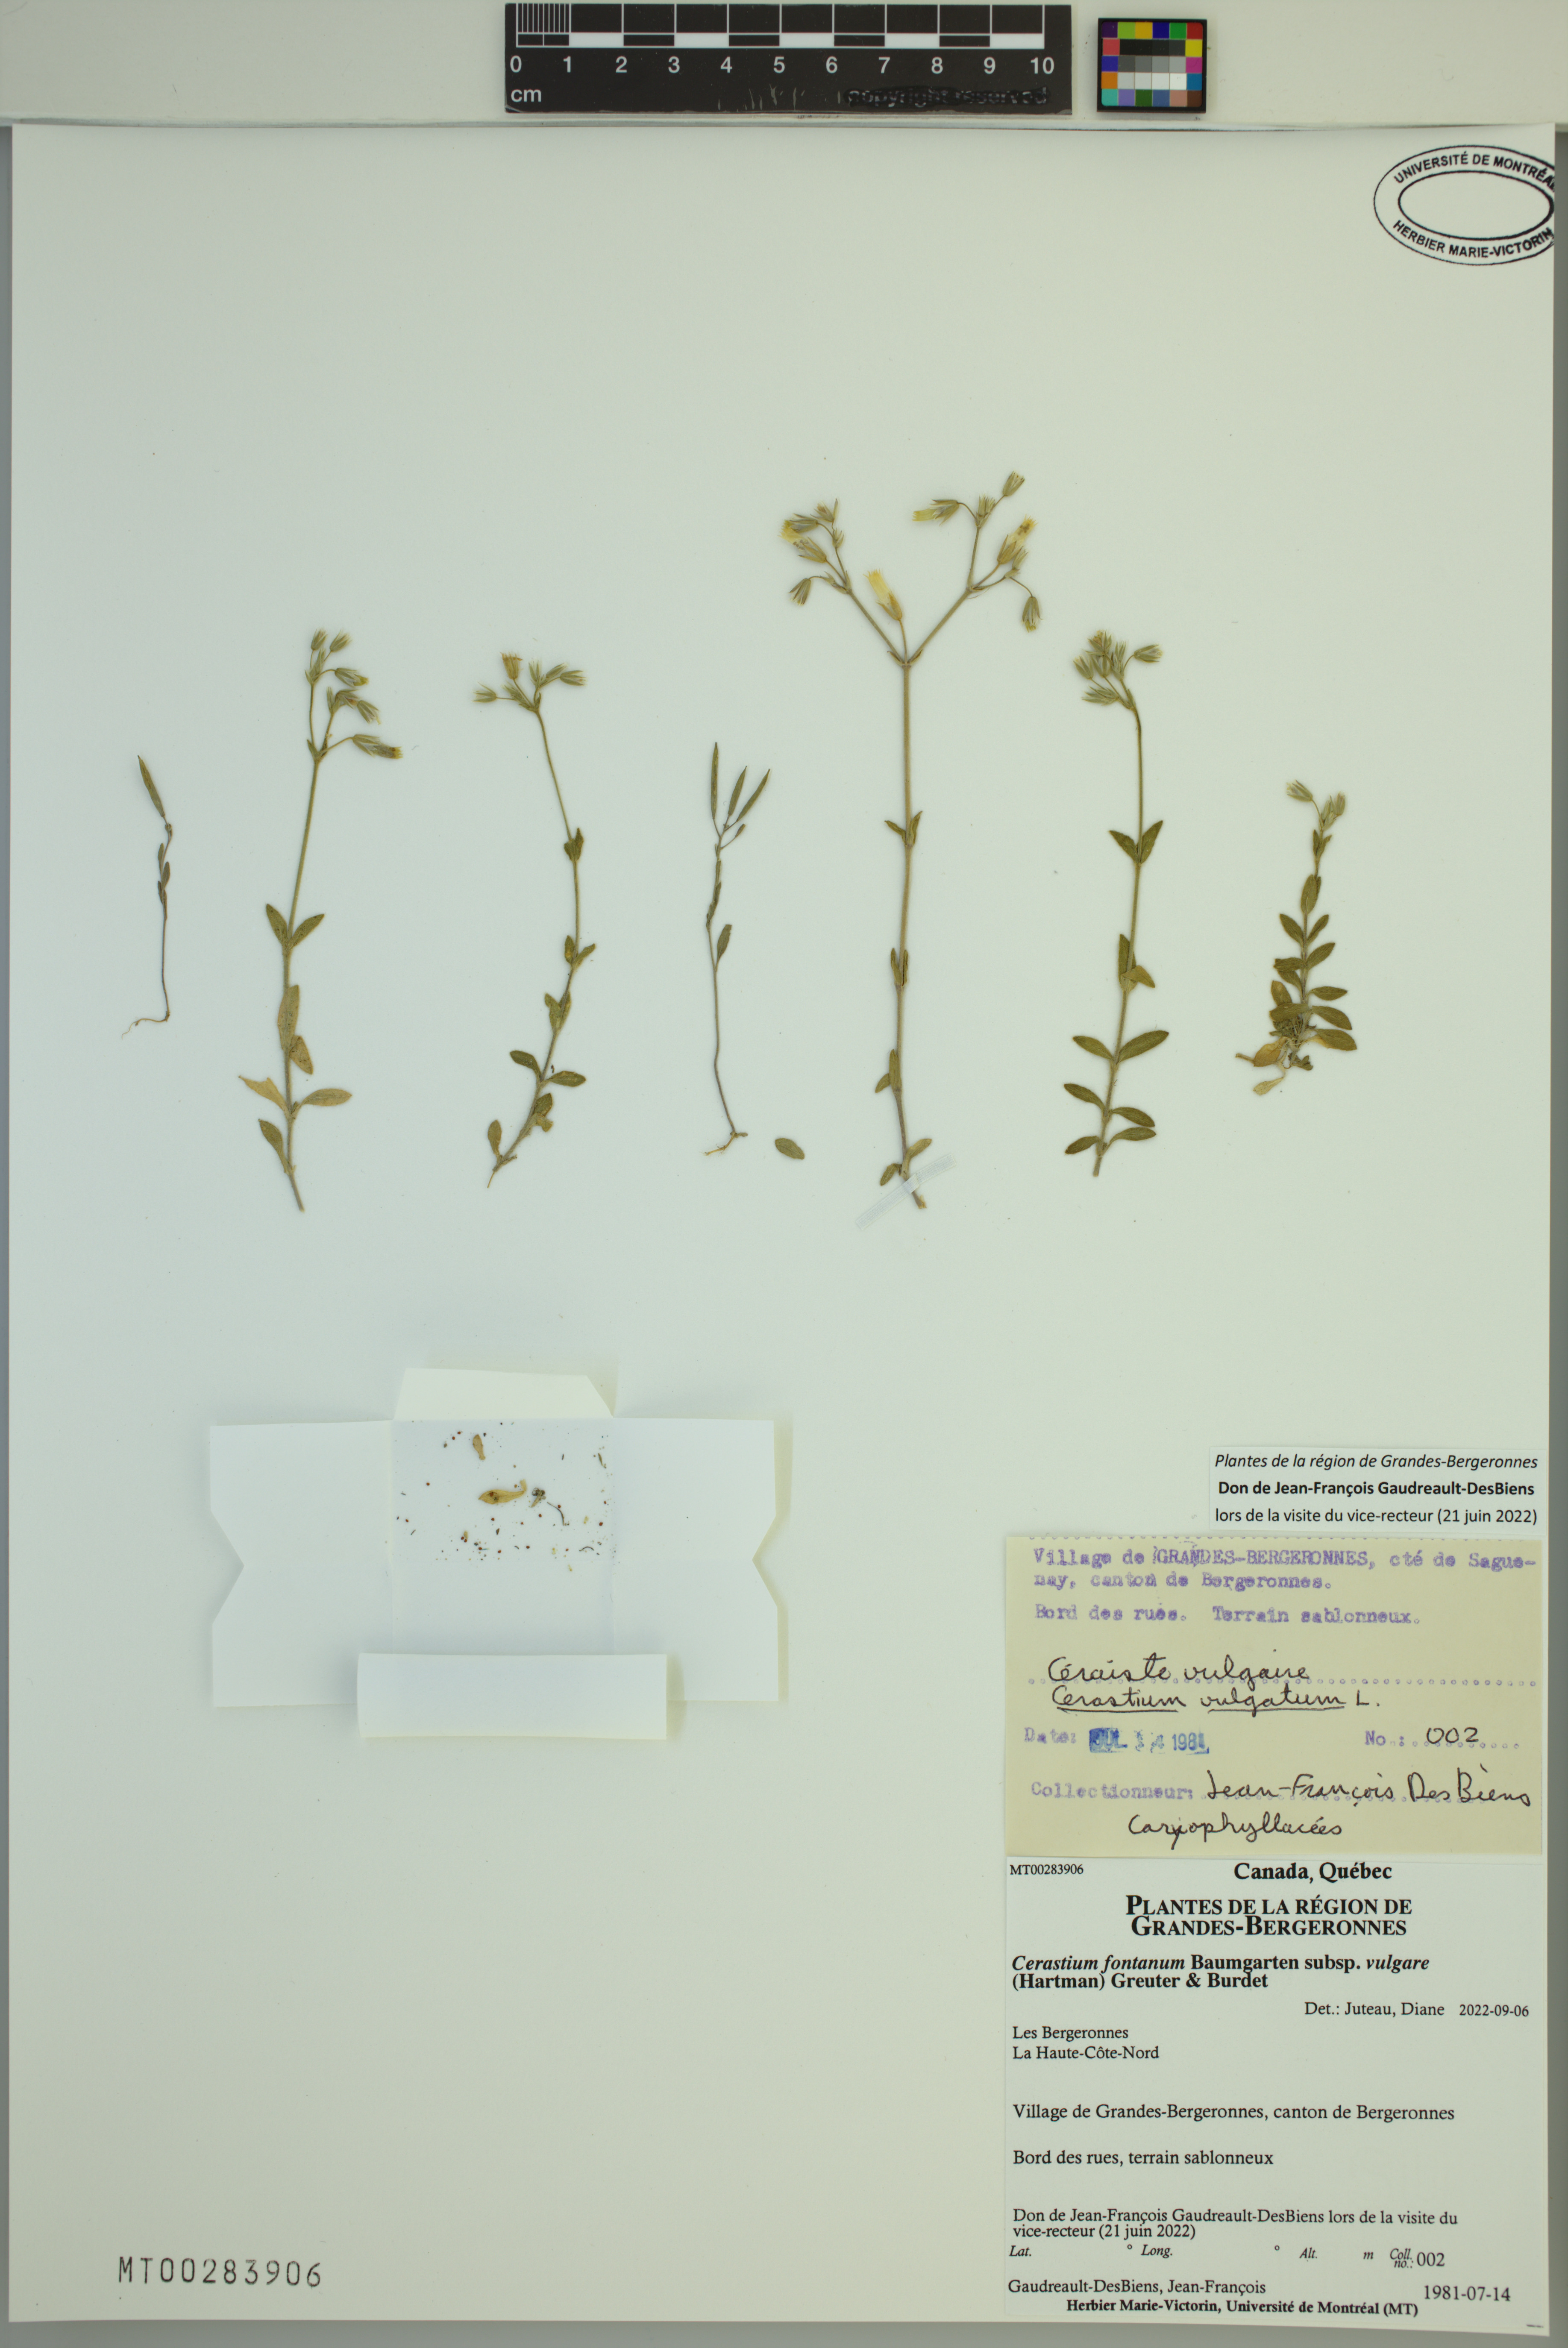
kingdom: Plantae
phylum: Tracheophyta
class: Magnoliopsida
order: Caryophyllales
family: Caryophyllaceae
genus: Cerastium
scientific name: Cerastium holosteoides
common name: Big chickweed
